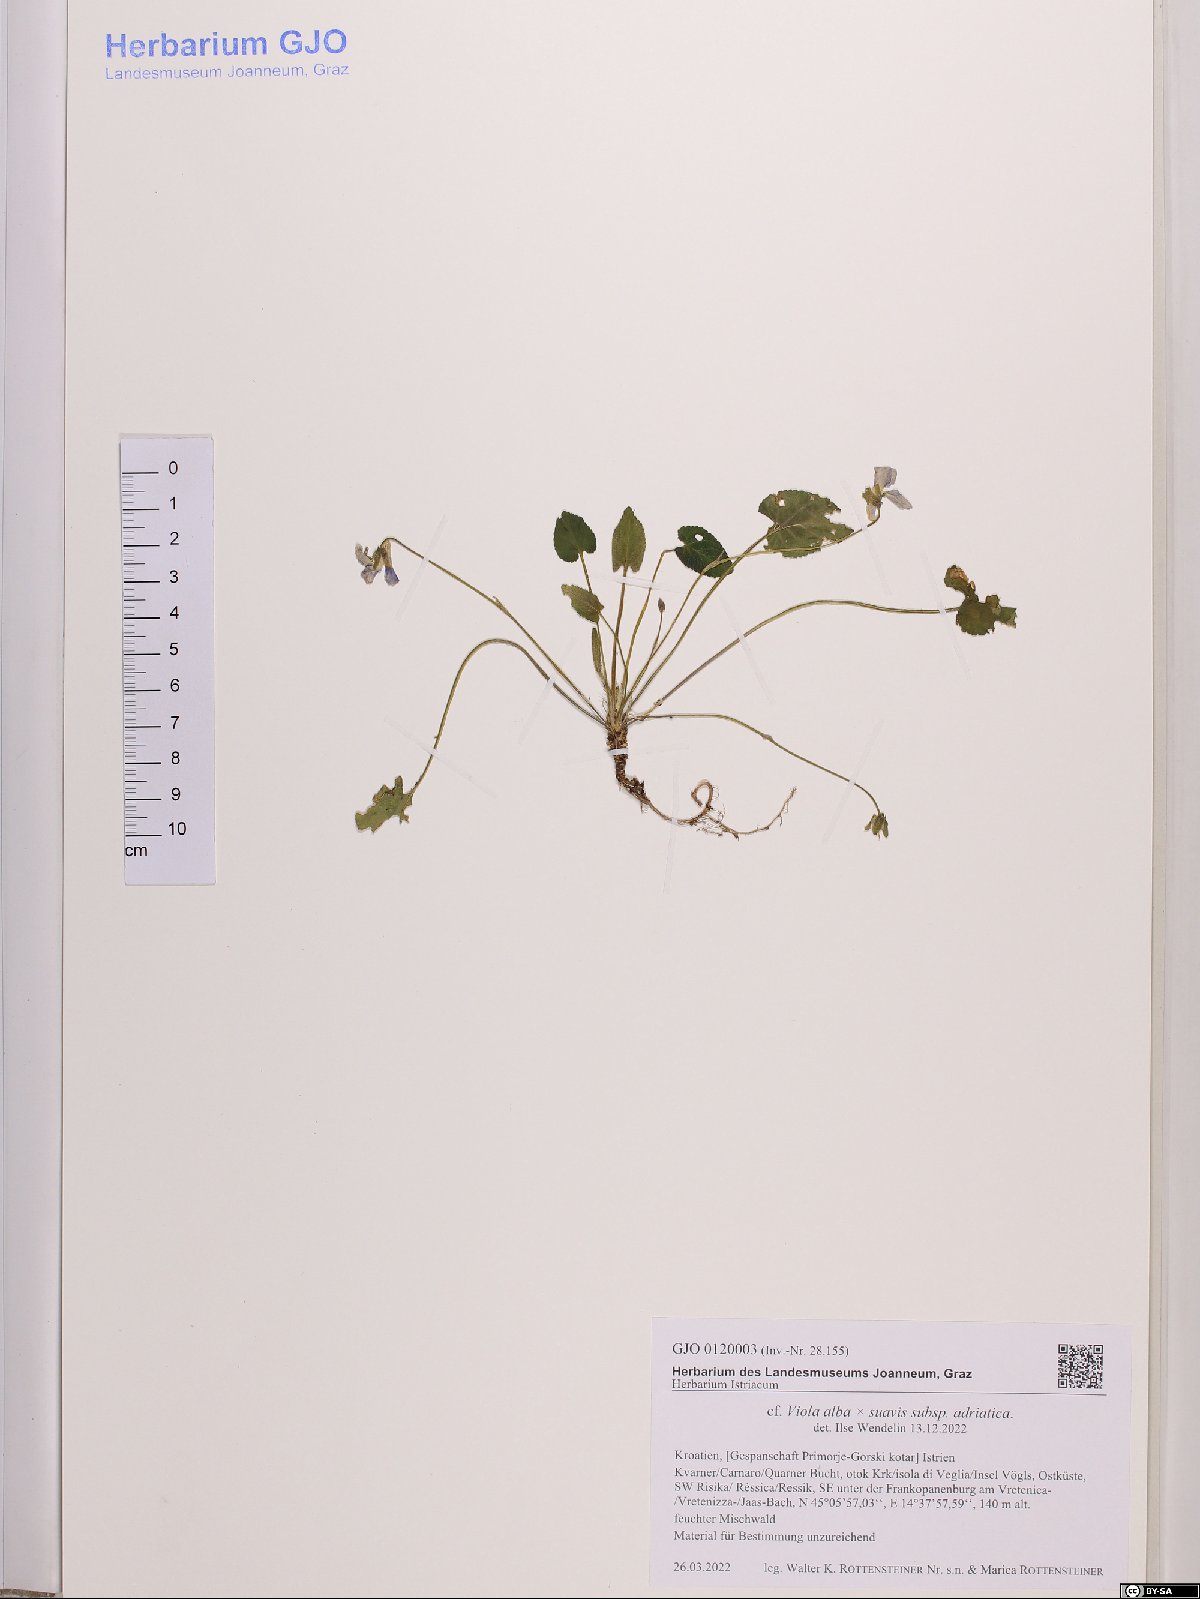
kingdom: Plantae
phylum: Tracheophyta
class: Magnoliopsida
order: Malpighiales
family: Violaceae
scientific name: Violaceae
